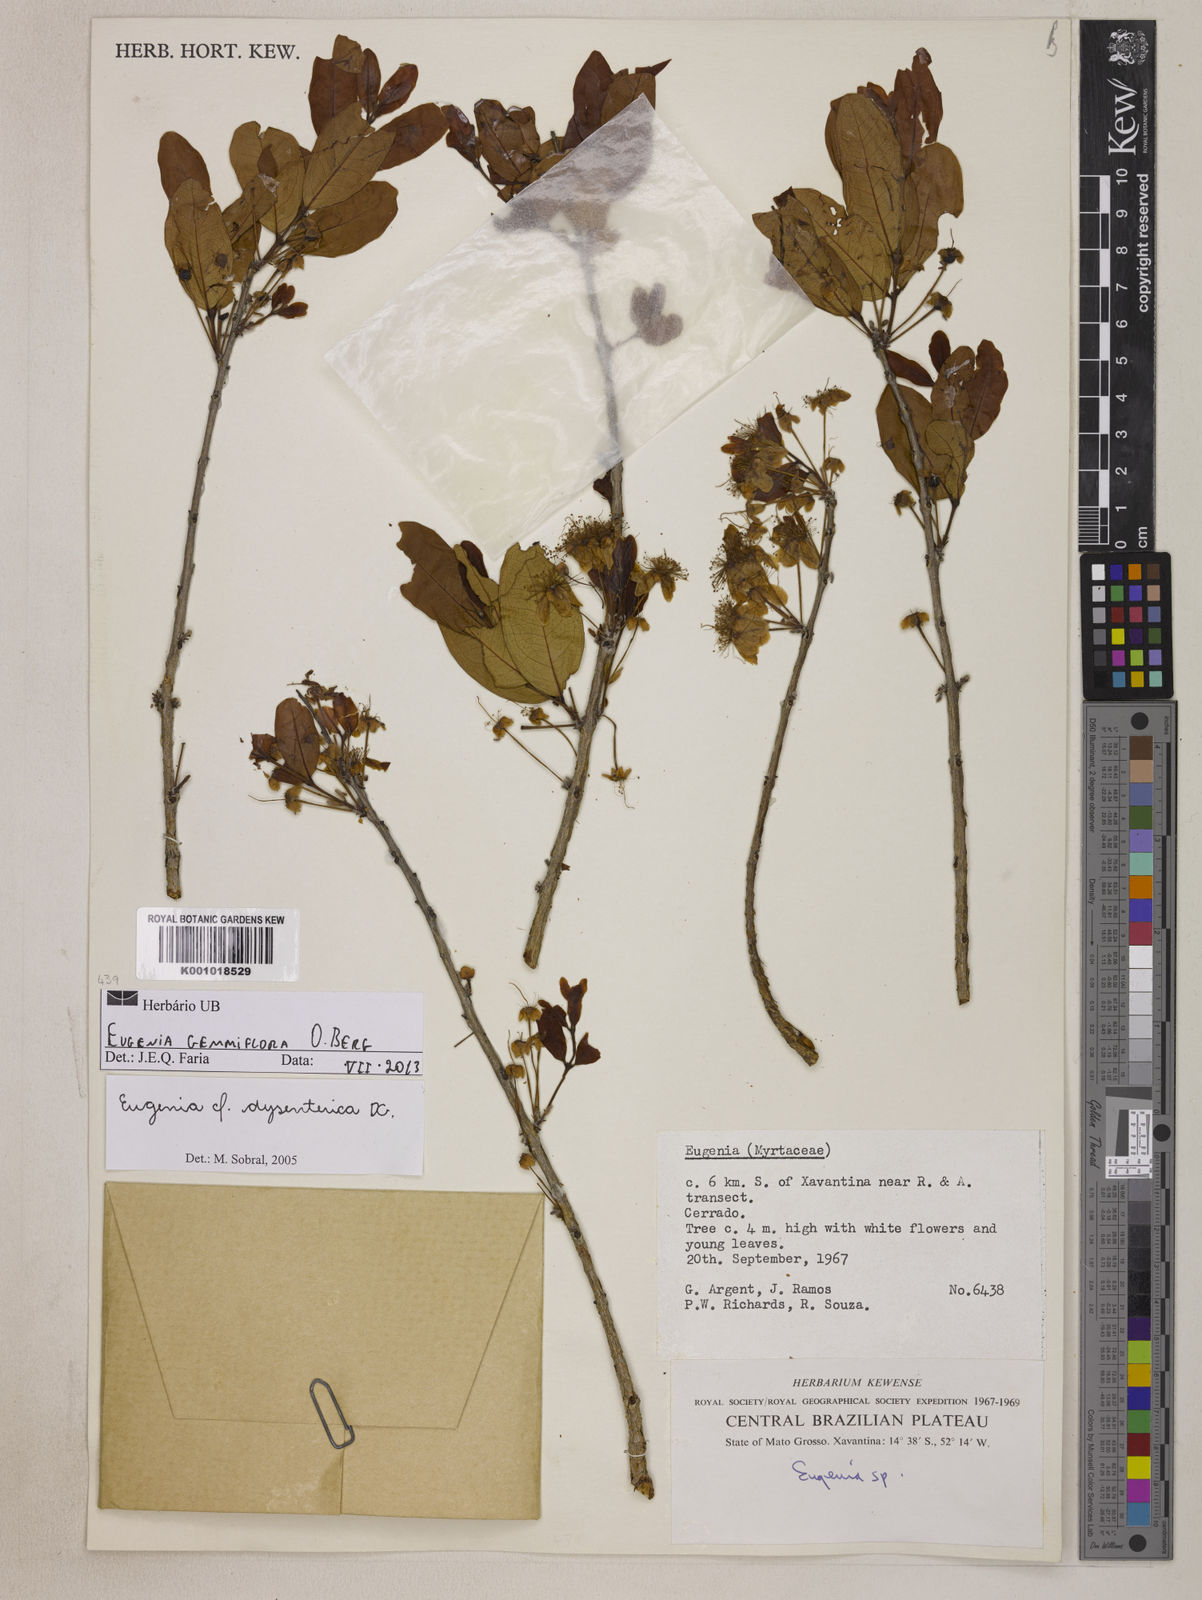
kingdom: Plantae
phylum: Tracheophyta
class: Magnoliopsida
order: Myrtales
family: Myrtaceae
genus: Eugenia
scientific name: Eugenia dysenterica
